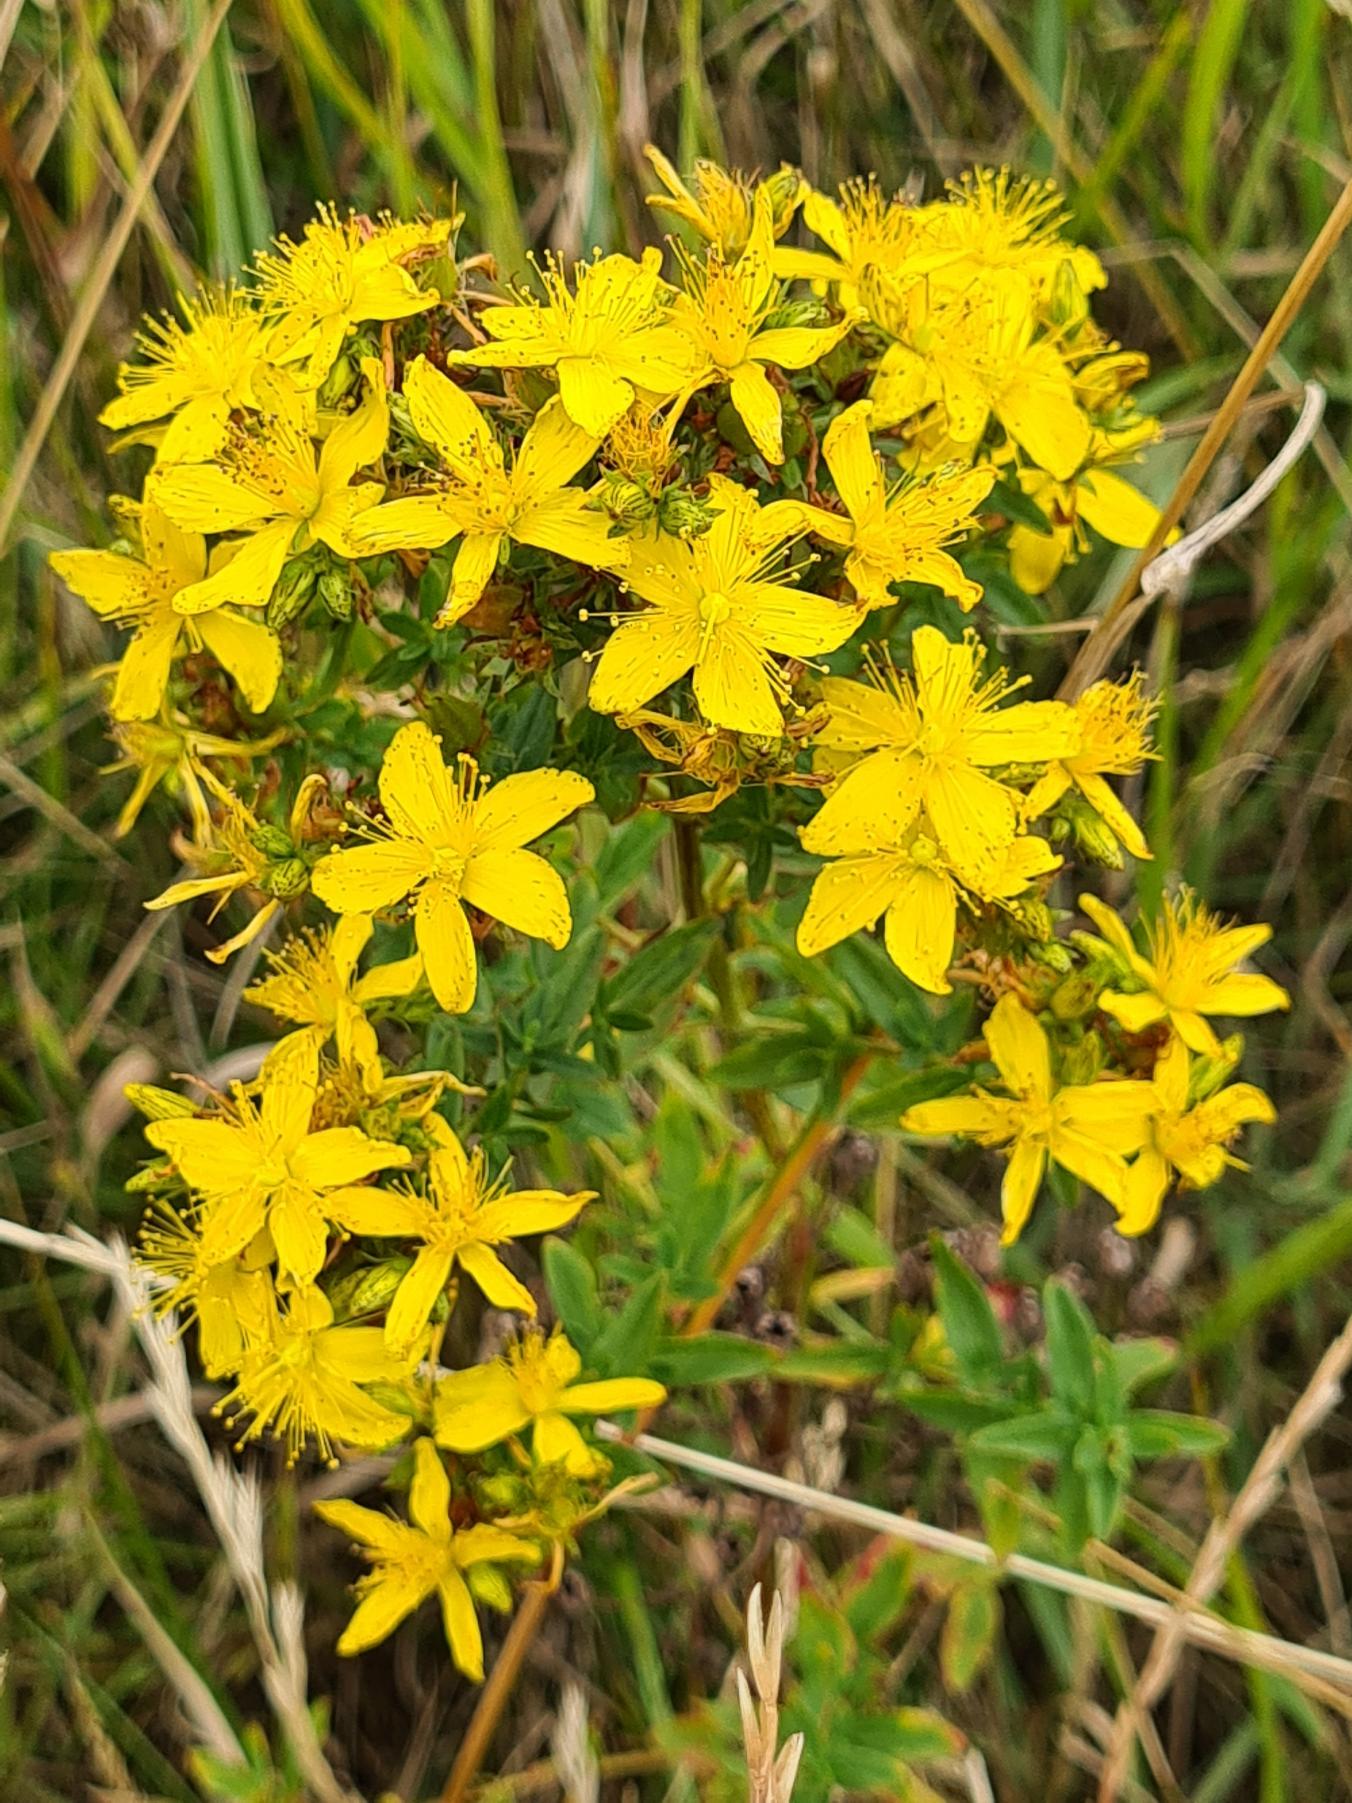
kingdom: Plantae
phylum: Tracheophyta
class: Magnoliopsida
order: Malpighiales
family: Hypericaceae
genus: Hypericum
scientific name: Hypericum perforatum
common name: Prikbladet perikon
